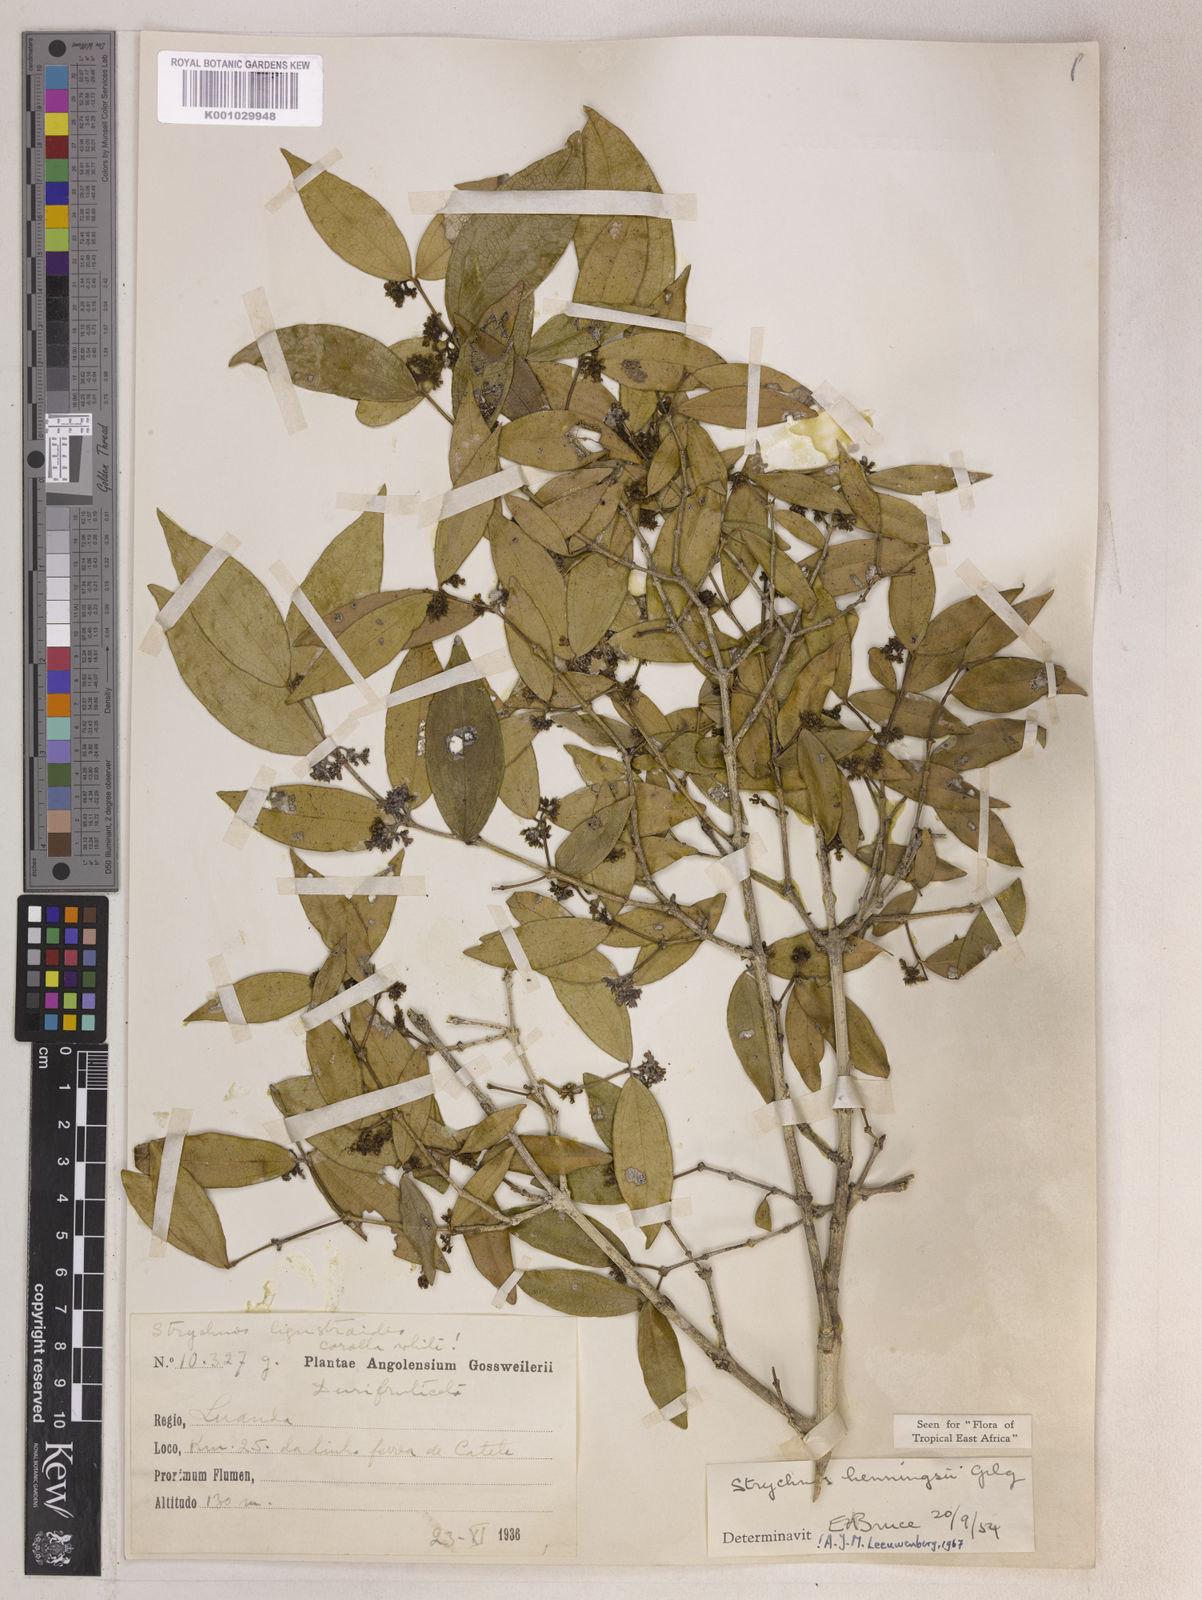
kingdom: Plantae
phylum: Tracheophyta
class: Magnoliopsida
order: Gentianales
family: Loganiaceae
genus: Strychnos
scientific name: Strychnos henningsii
